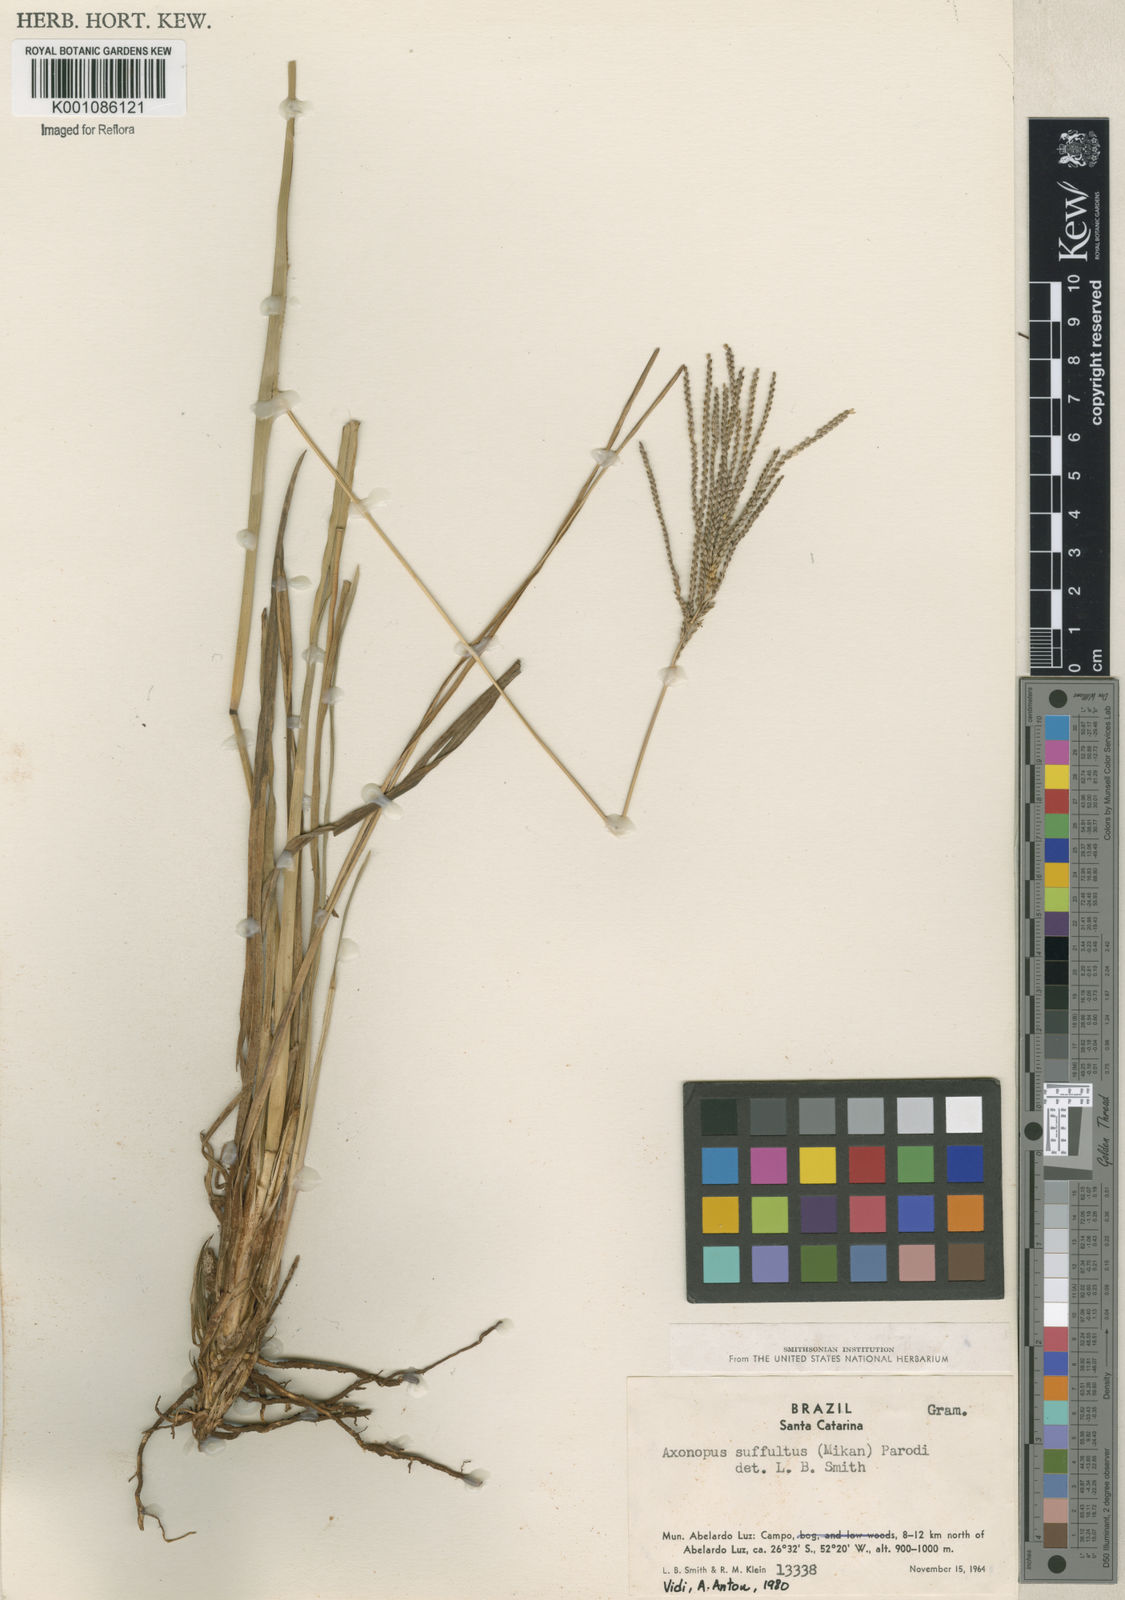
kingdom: Plantae
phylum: Tracheophyta
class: Liliopsida
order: Poales
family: Poaceae
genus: Axonopus
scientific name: Axonopus suffultus
